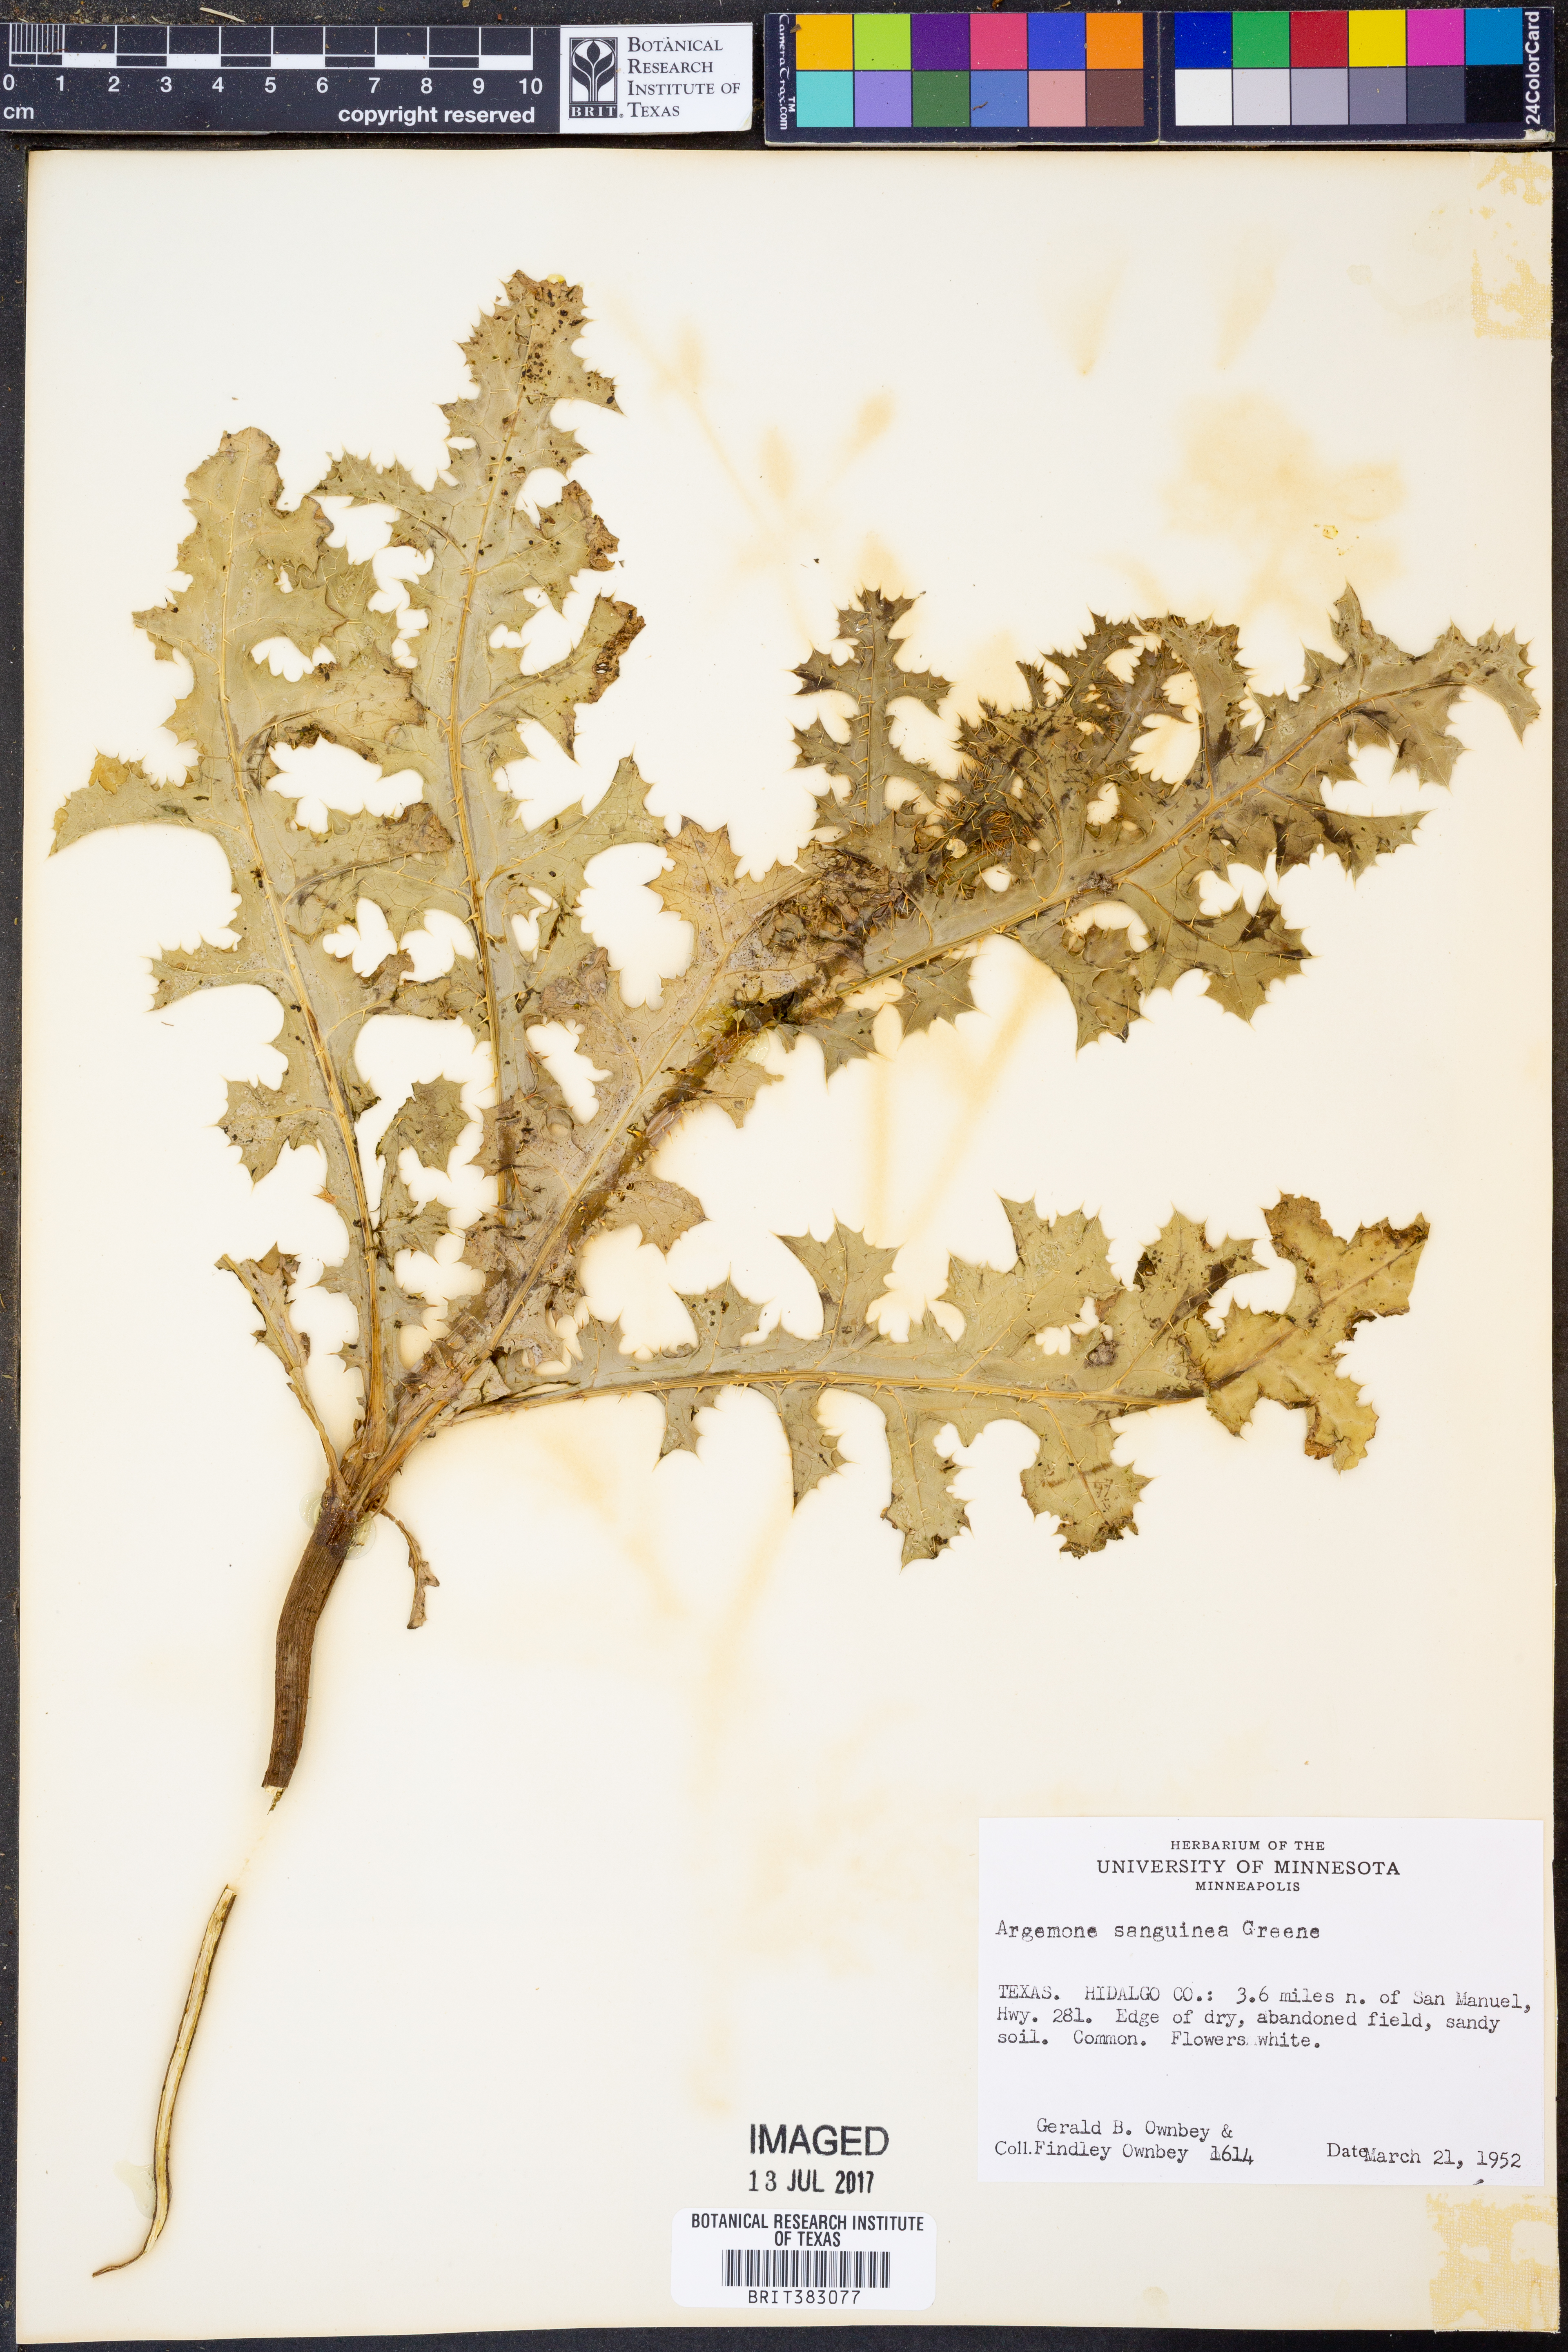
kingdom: Plantae
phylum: Tracheophyta
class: Magnoliopsida
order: Ranunculales
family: Papaveraceae
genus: Argemone
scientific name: Argemone sanguinea
